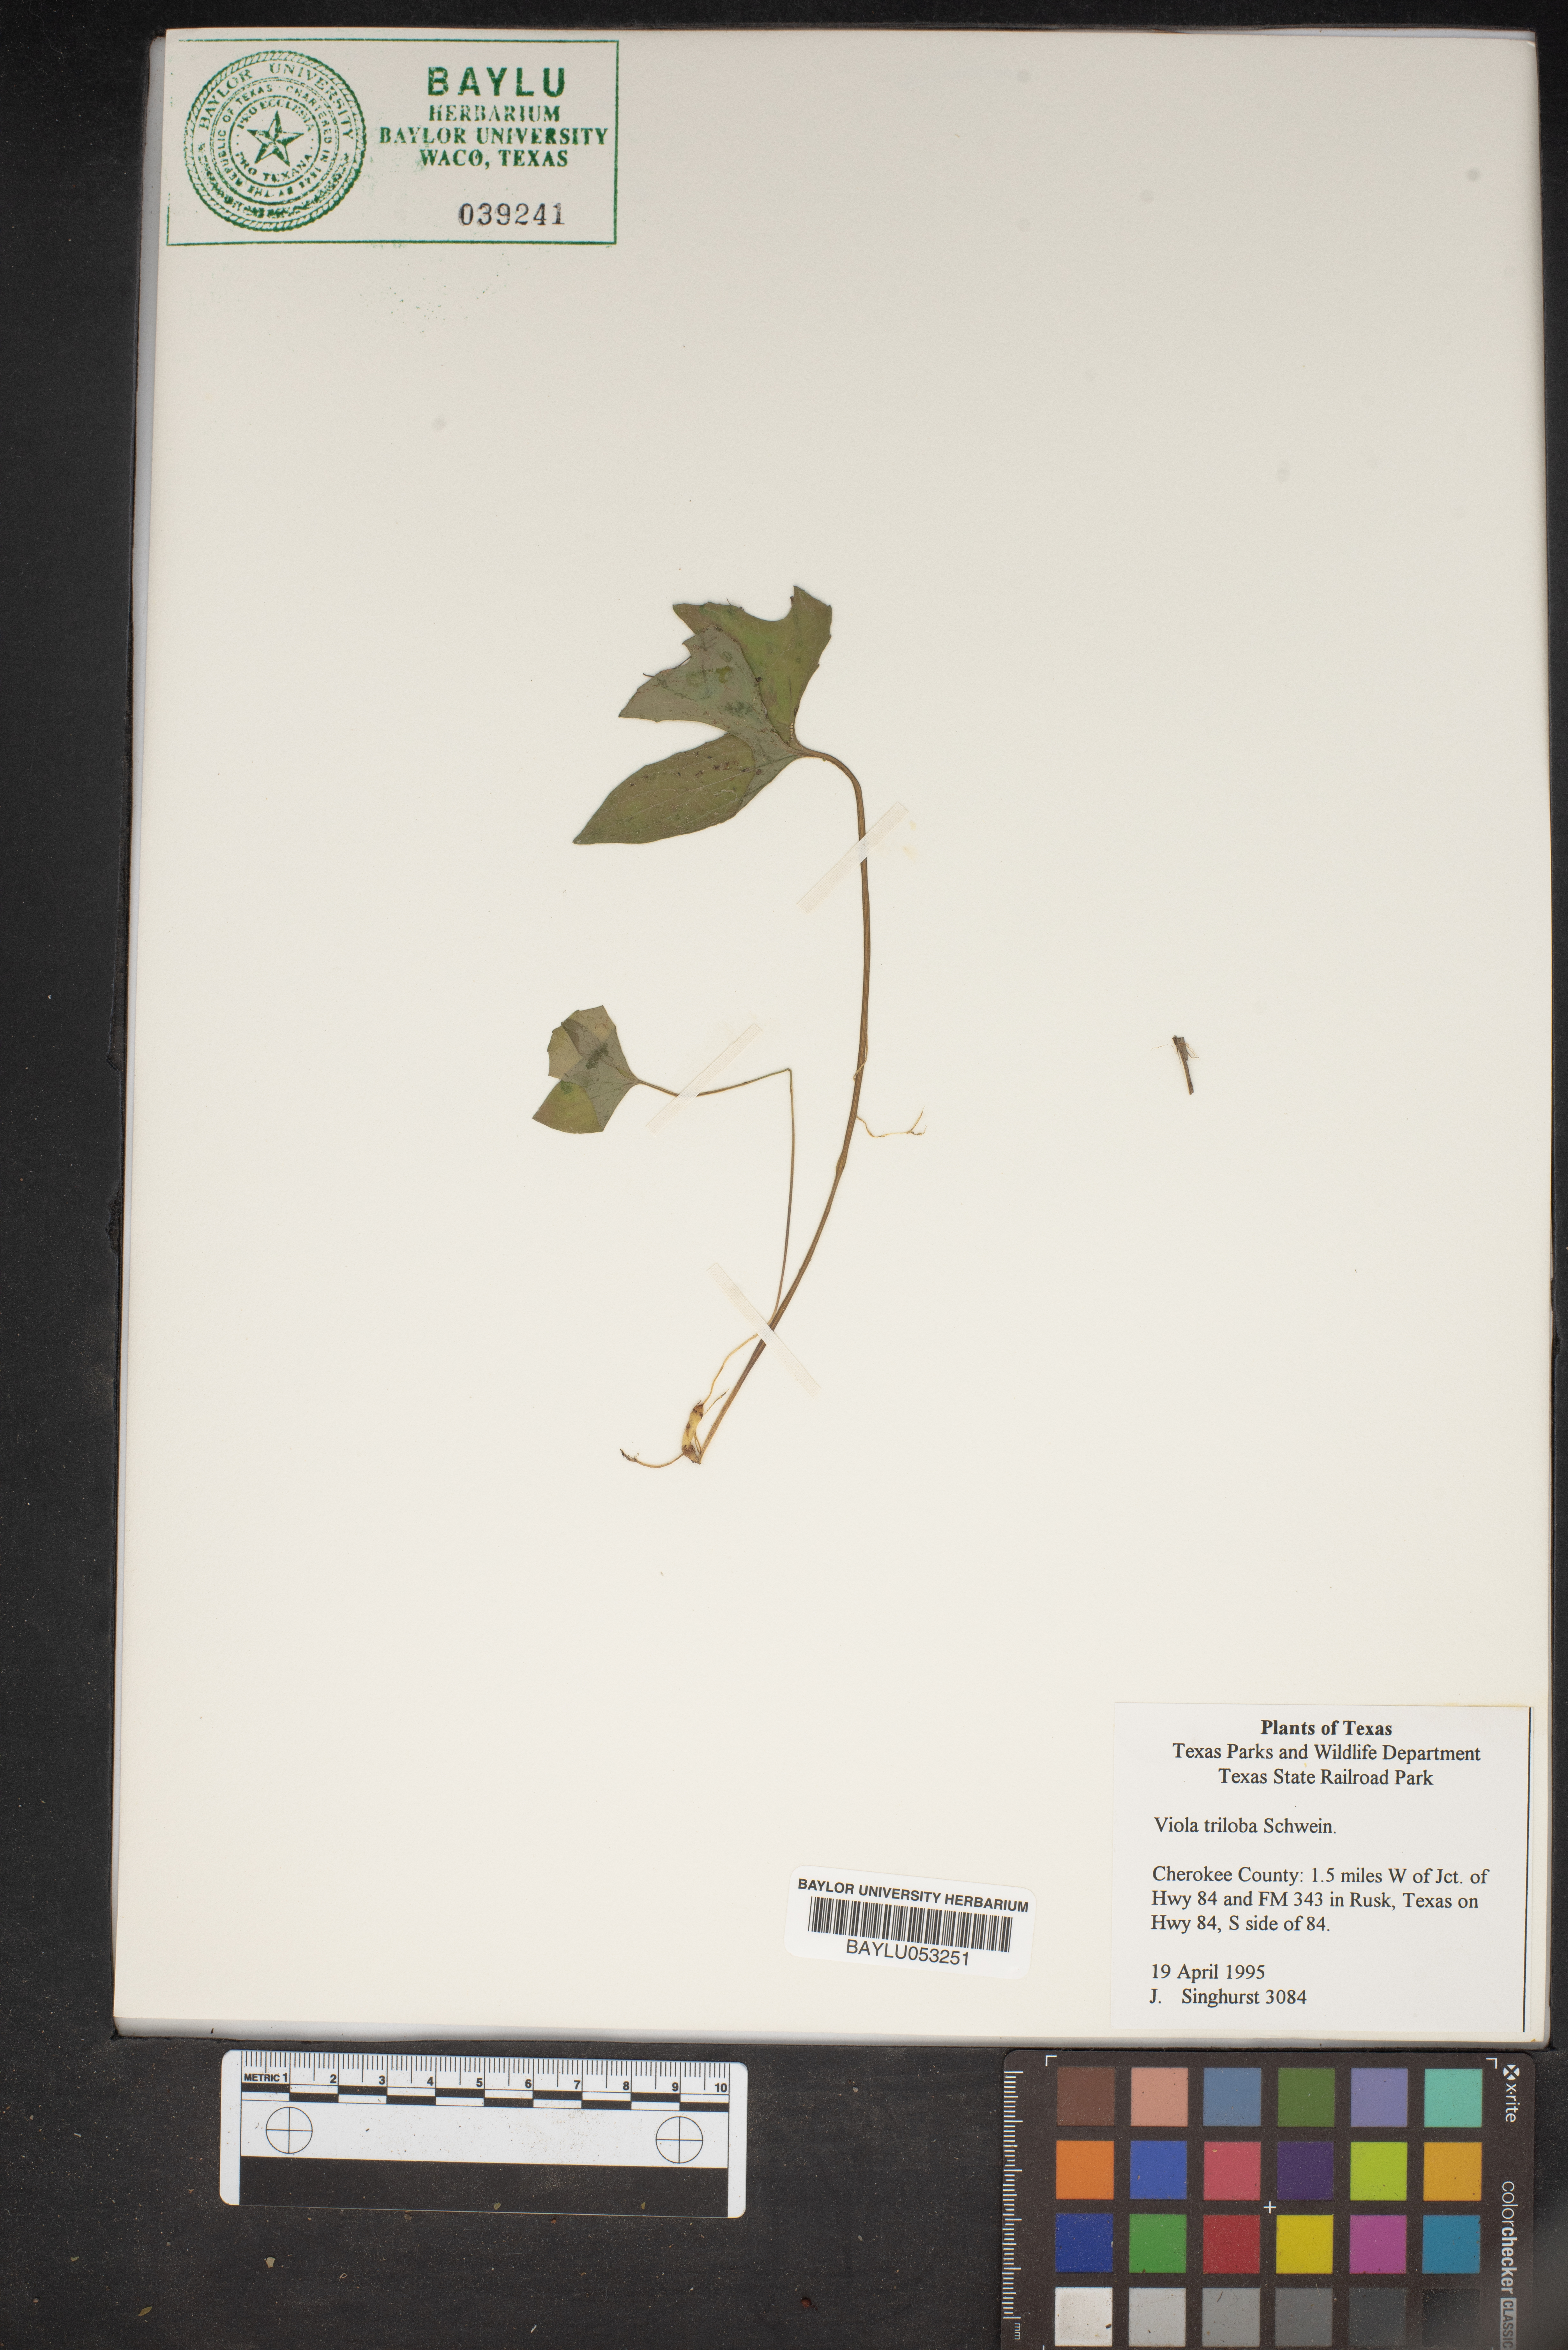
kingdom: Plantae
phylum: Tracheophyta
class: Magnoliopsida
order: Malpighiales
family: Violaceae
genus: Viola
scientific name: Viola palmata
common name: Early blue violet
